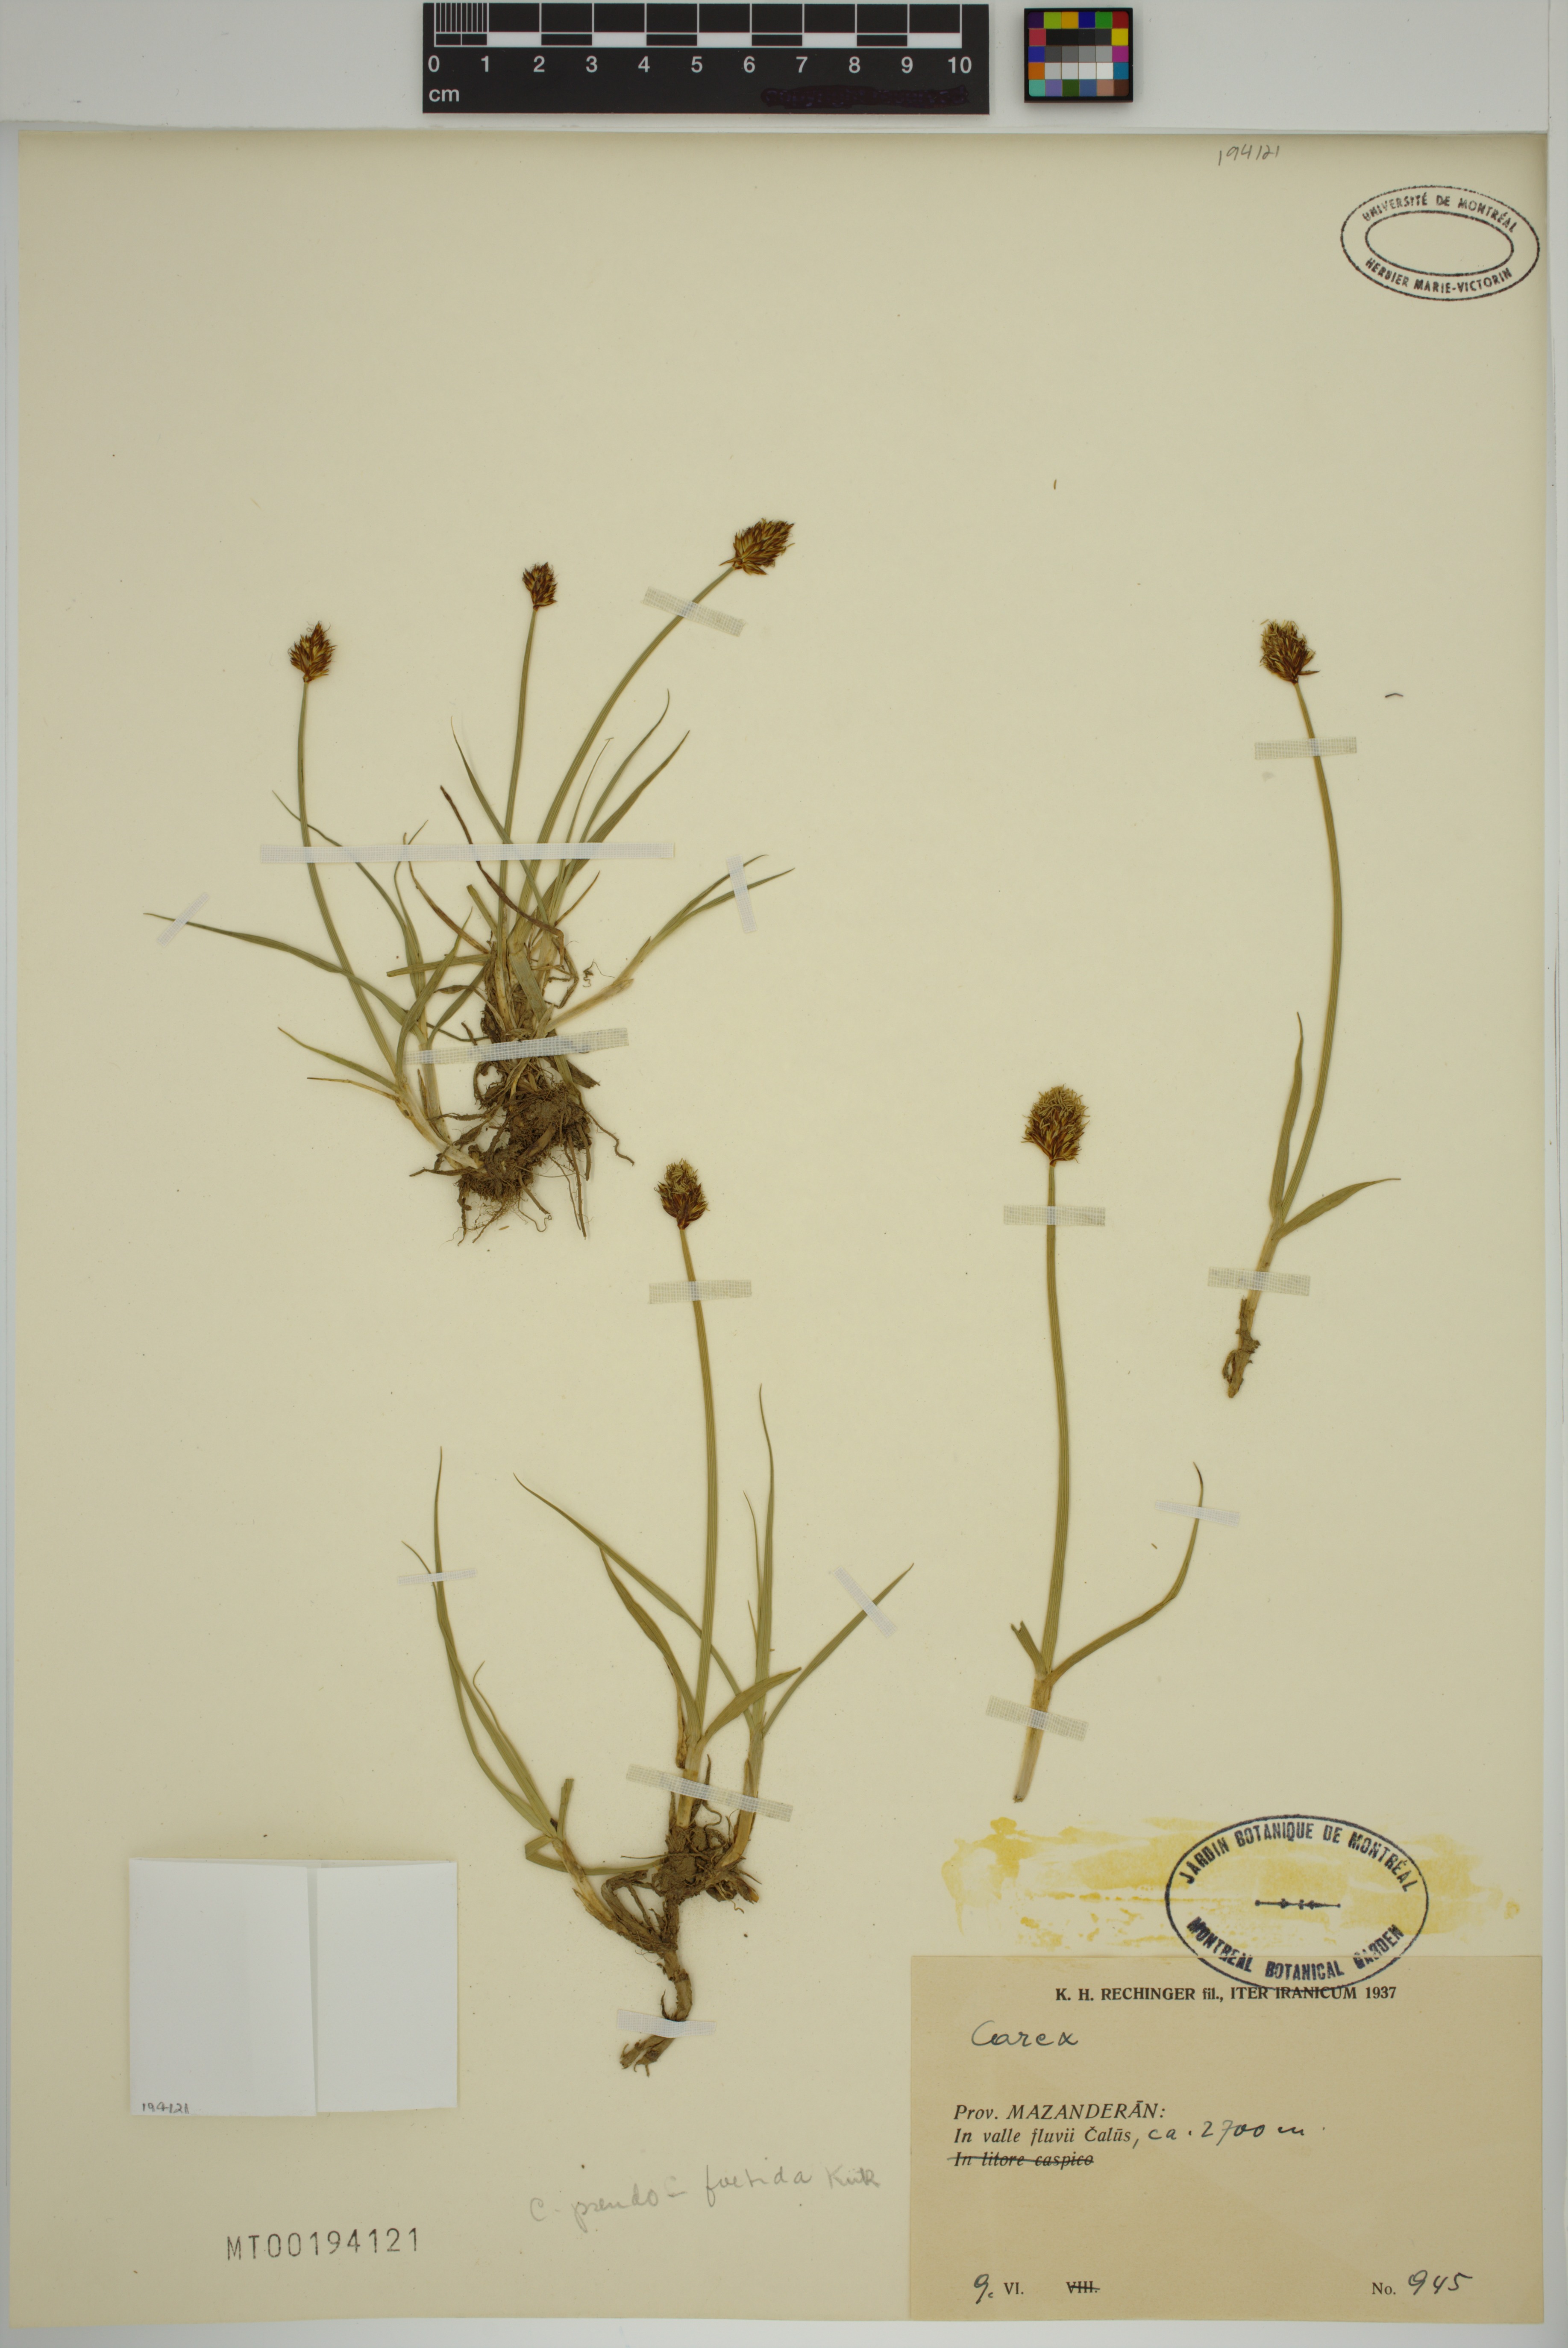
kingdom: Plantae
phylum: Tracheophyta
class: Liliopsida
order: Poales
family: Cyperaceae
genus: Carex
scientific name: Carex pseudofoetida
